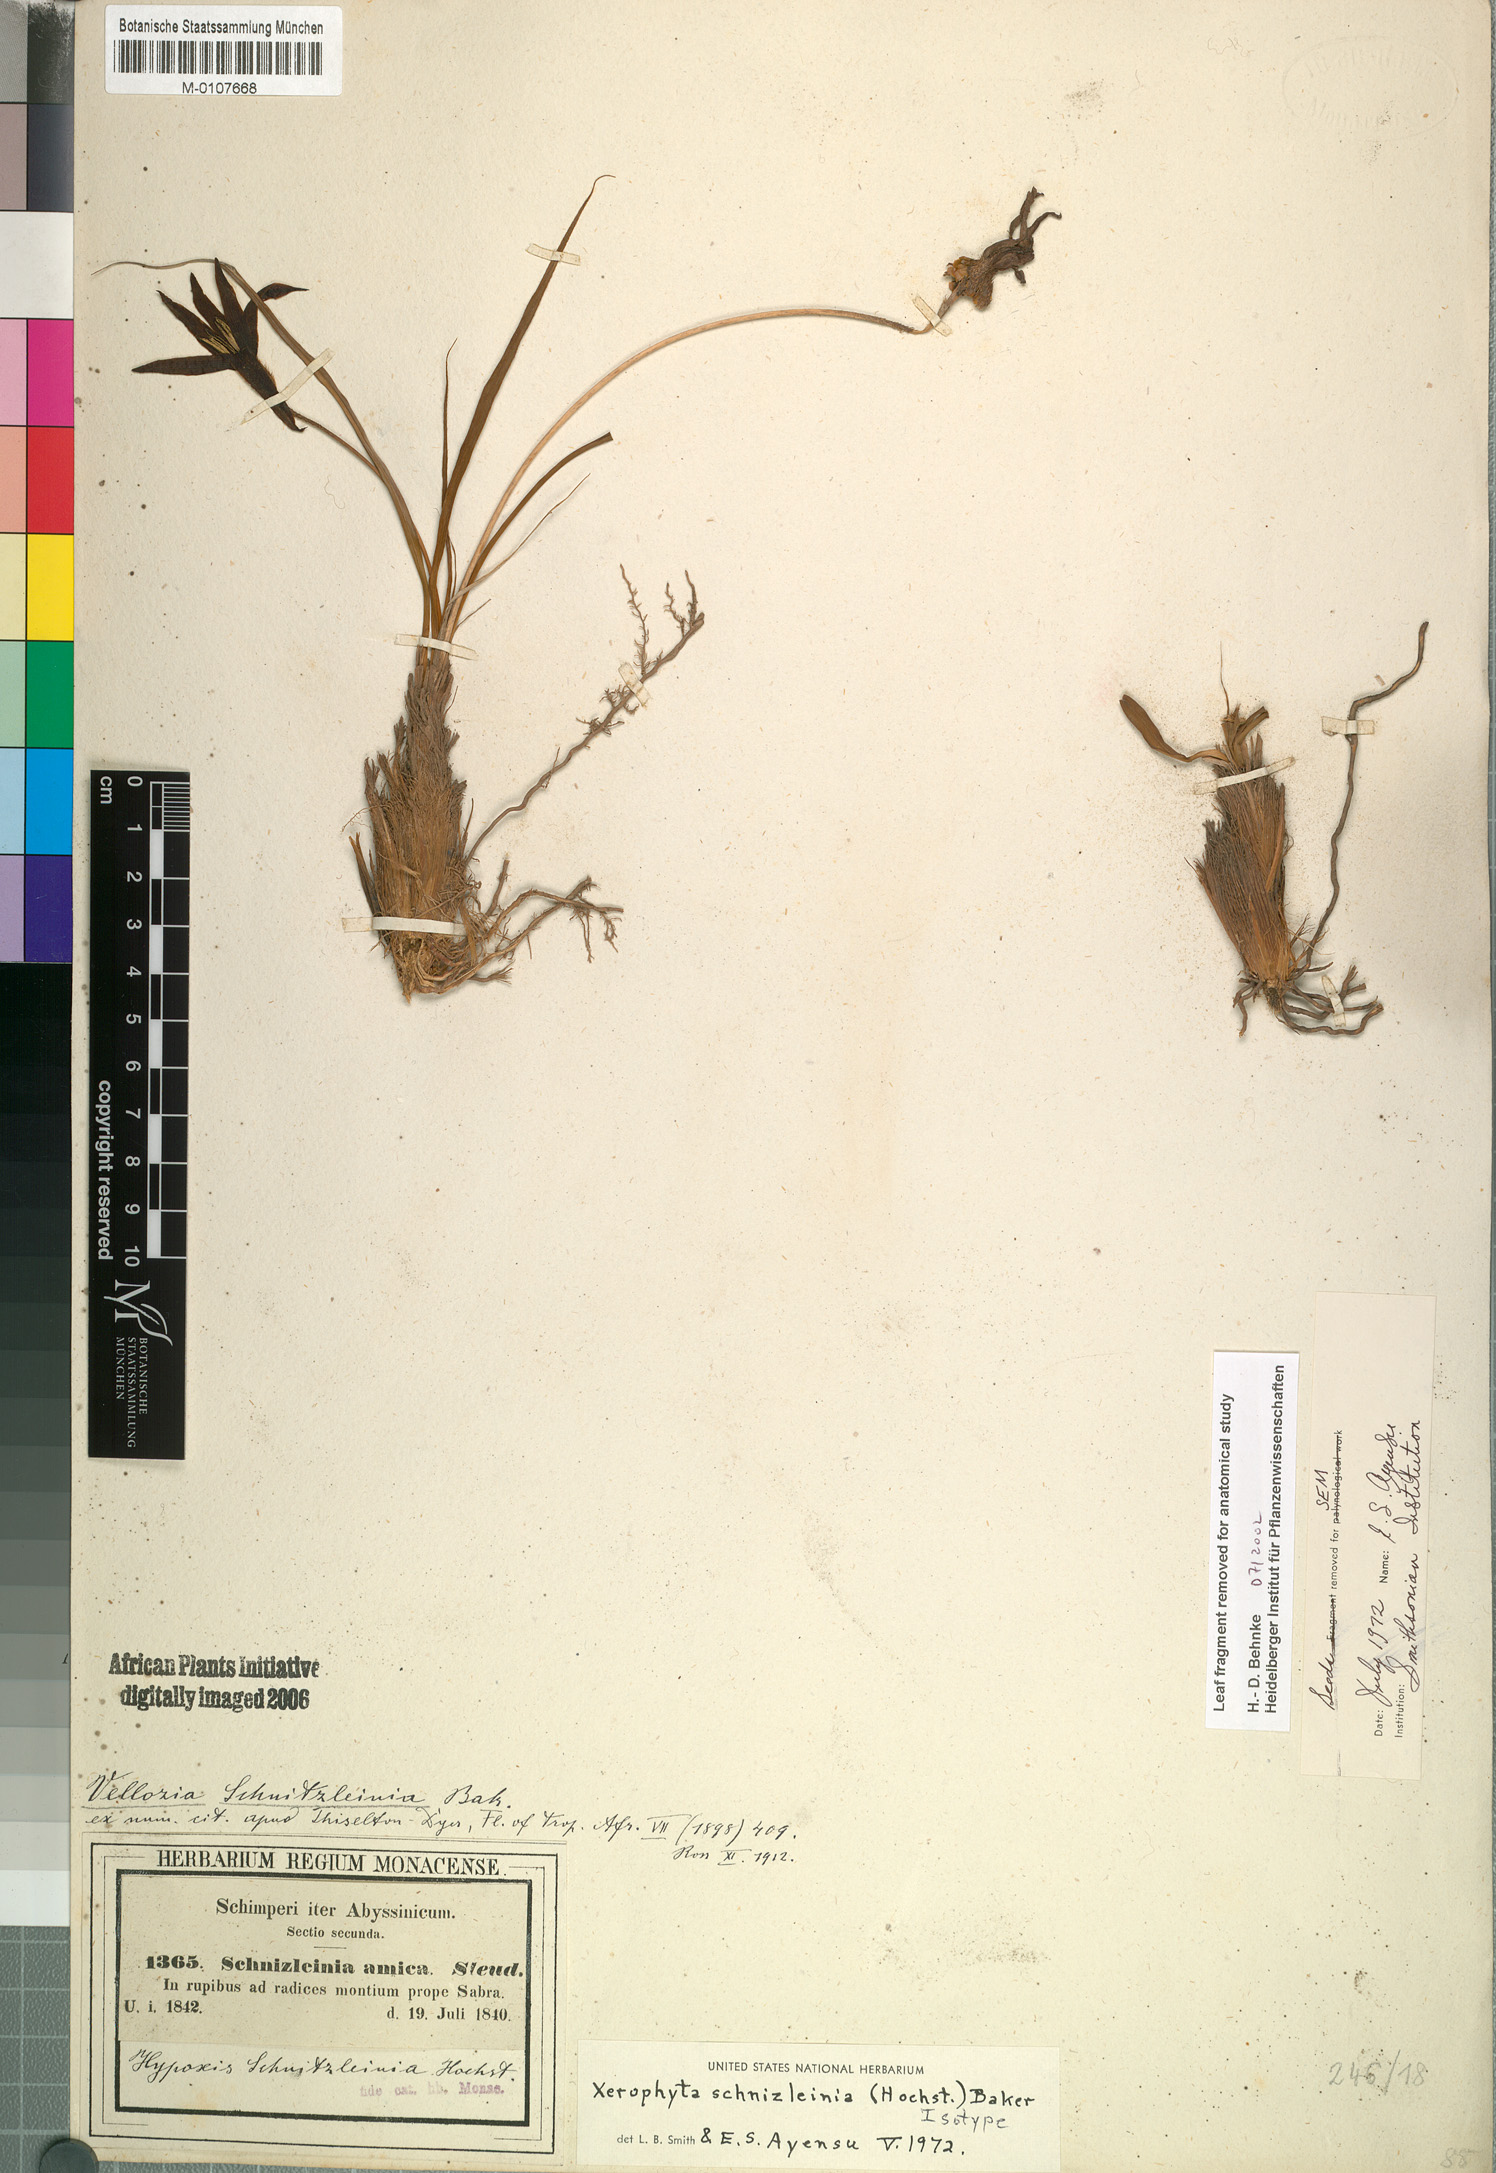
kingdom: Plantae
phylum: Tracheophyta
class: Liliopsida
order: Pandanales
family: Velloziaceae
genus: Xerophyta
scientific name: Xerophyta schnizleinia
